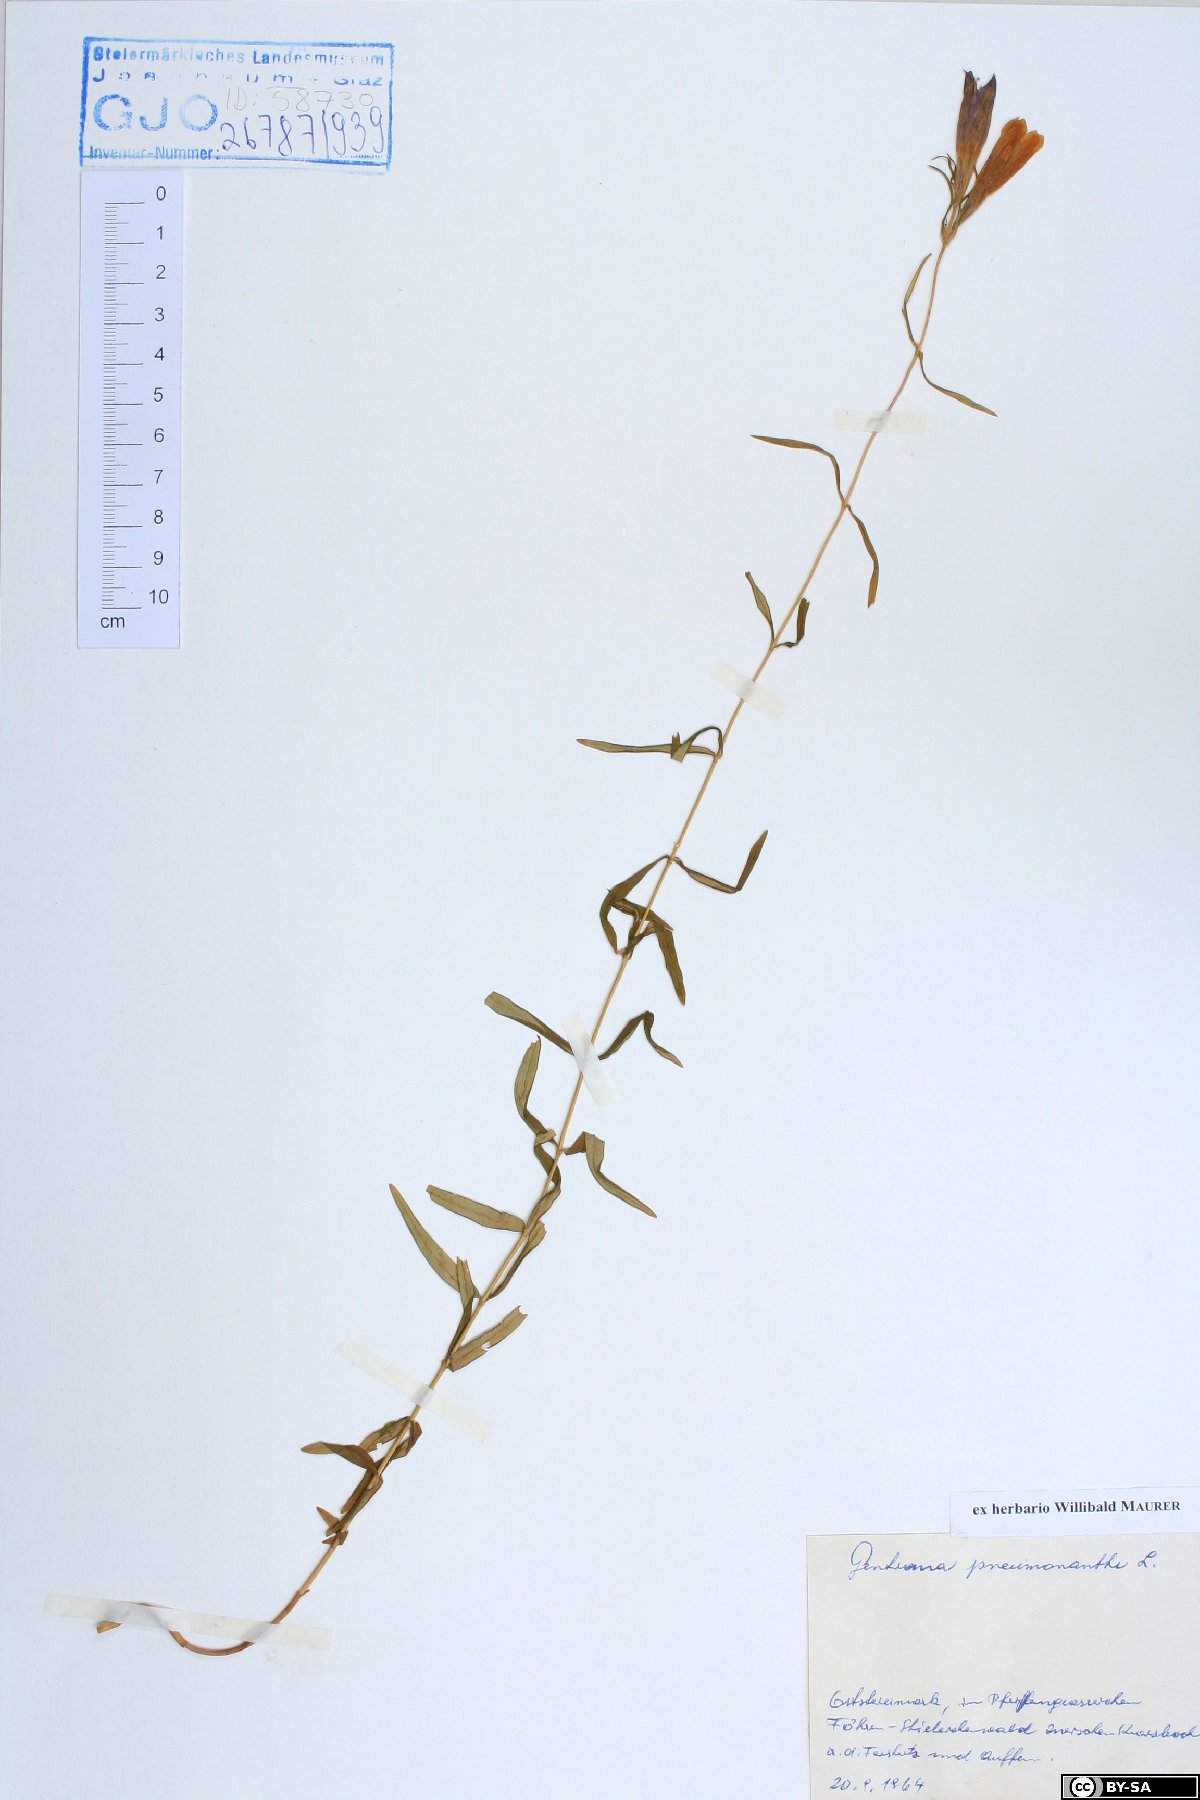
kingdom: Plantae
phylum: Tracheophyta
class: Magnoliopsida
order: Gentianales
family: Gentianaceae
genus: Gentiana
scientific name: Gentiana pneumonanthe
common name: Marsh gentian
